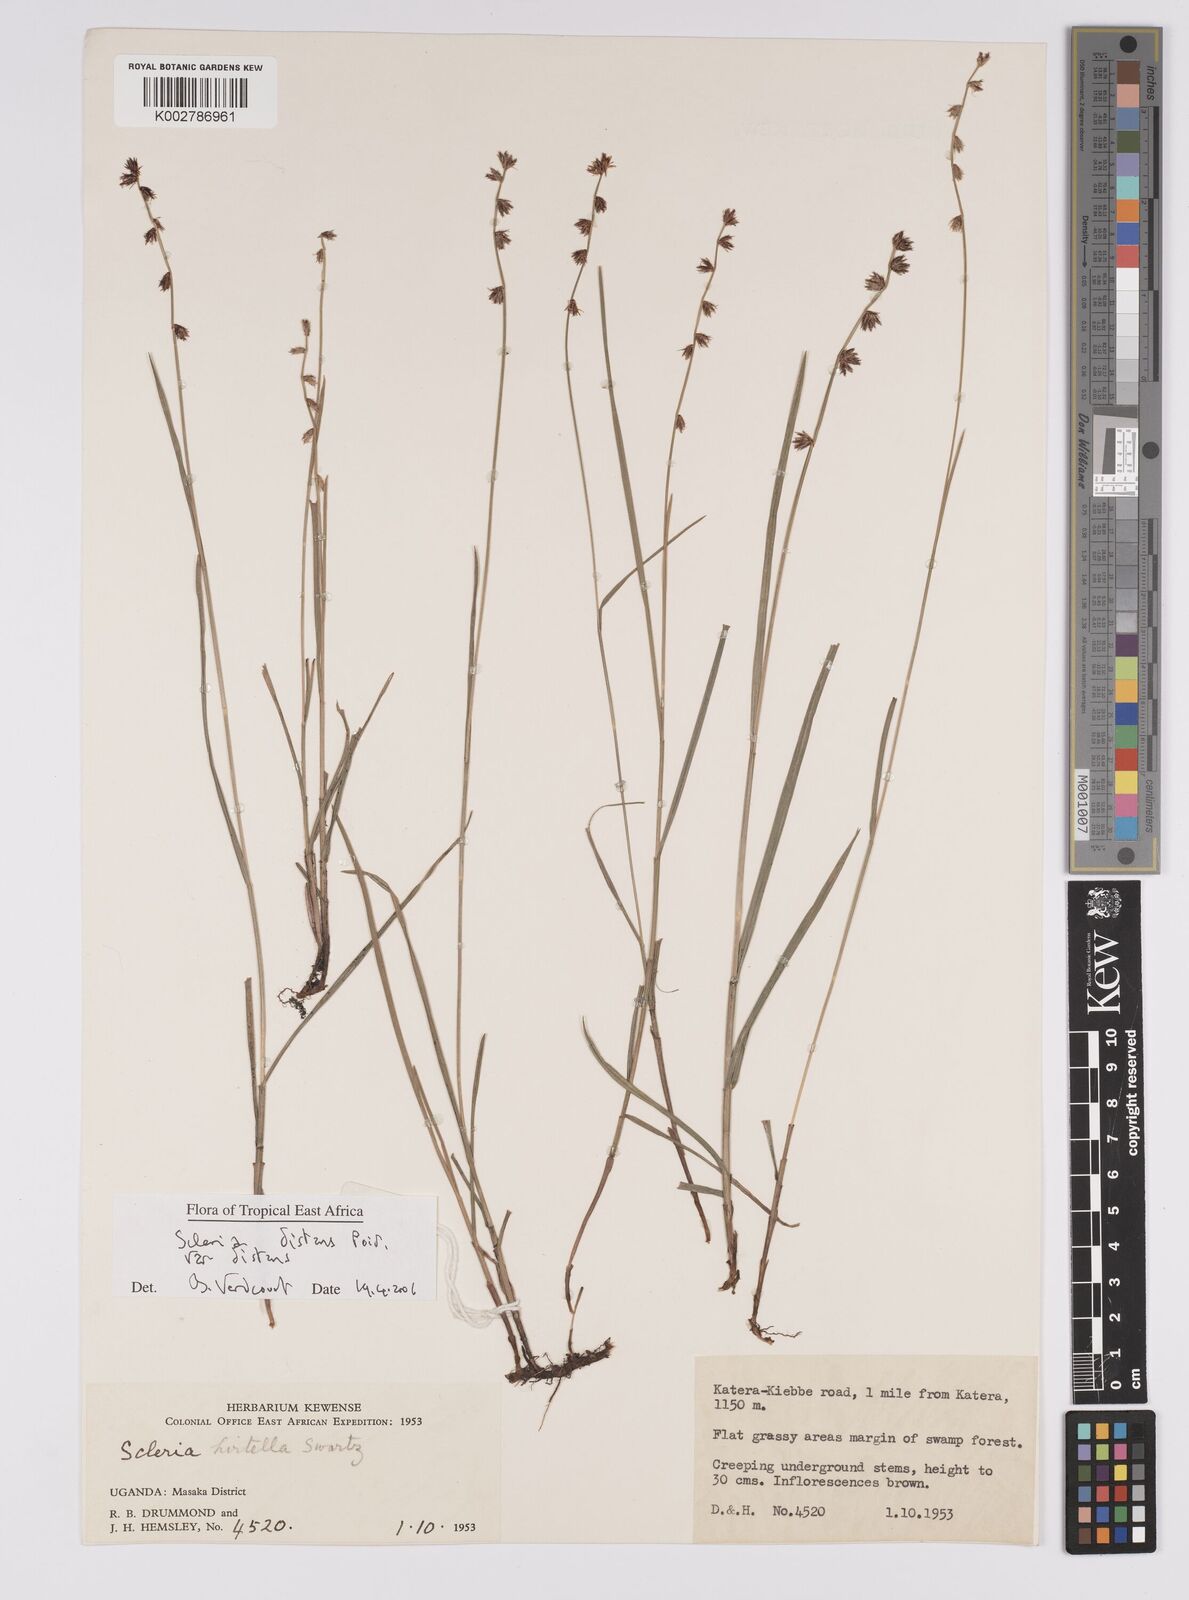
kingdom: Plantae
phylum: Tracheophyta
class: Liliopsida
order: Poales
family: Cyperaceae
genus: Scleria
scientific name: Scleria
